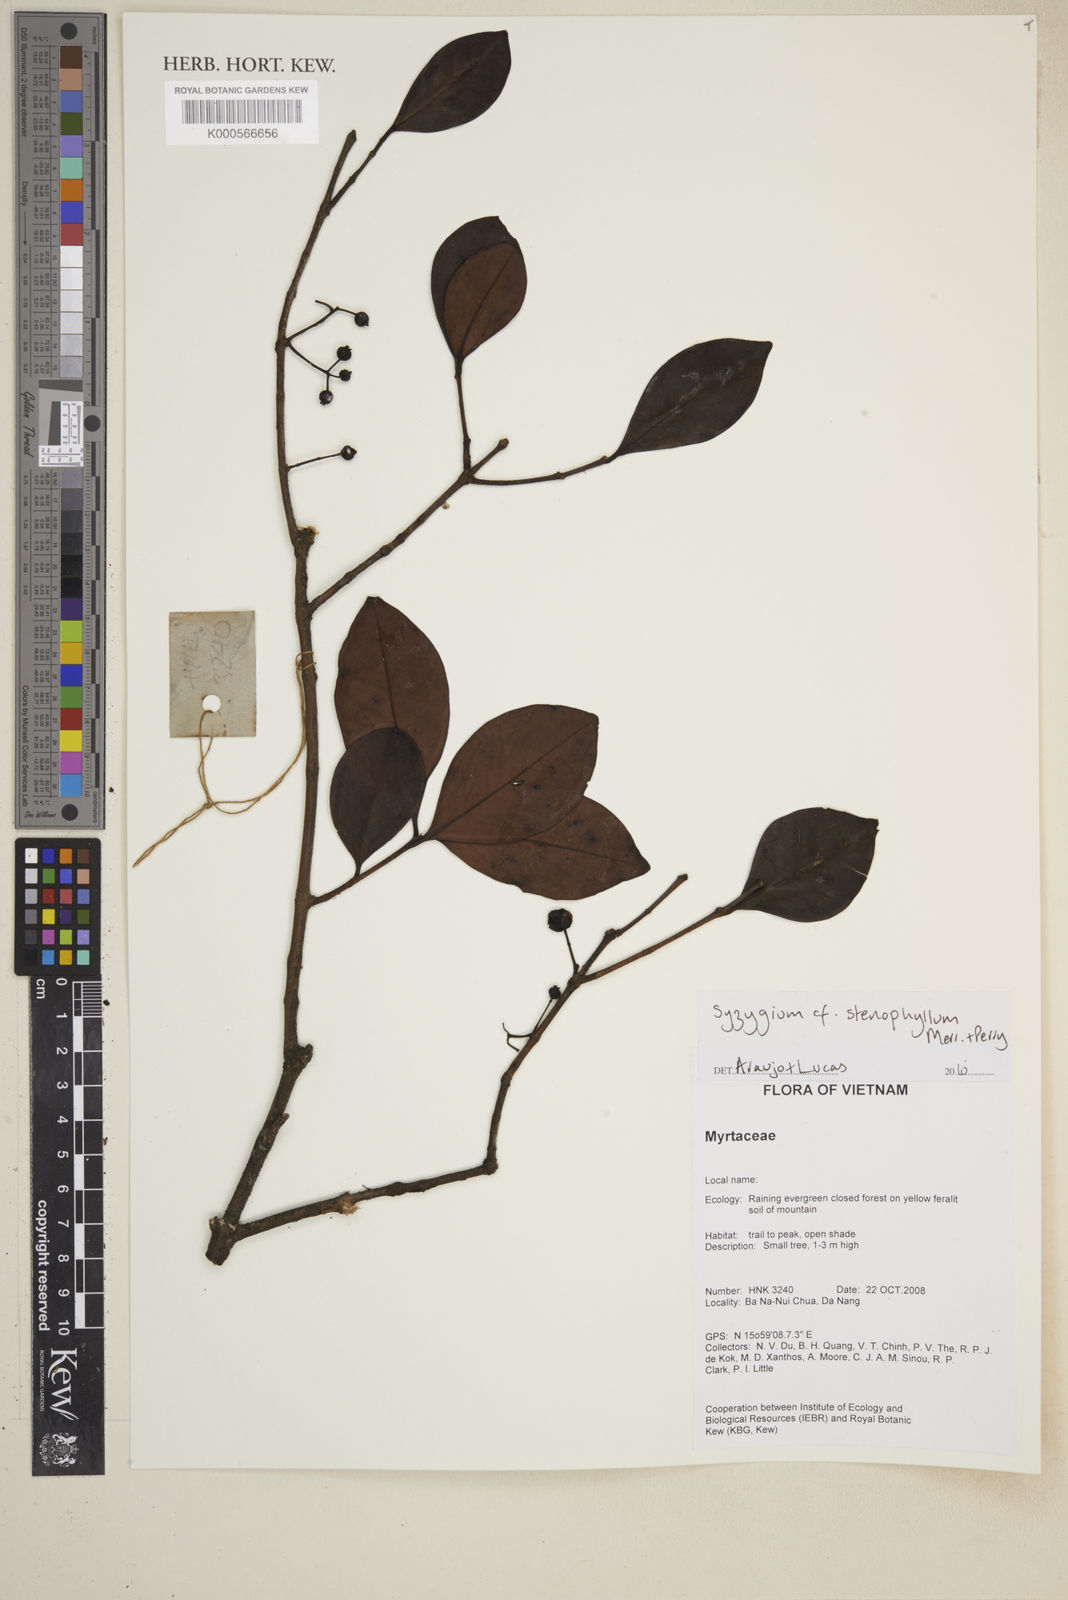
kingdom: Plantae
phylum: Tracheophyta
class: Magnoliopsida
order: Myrtales
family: Myrtaceae
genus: Syzygium
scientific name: Syzygium
